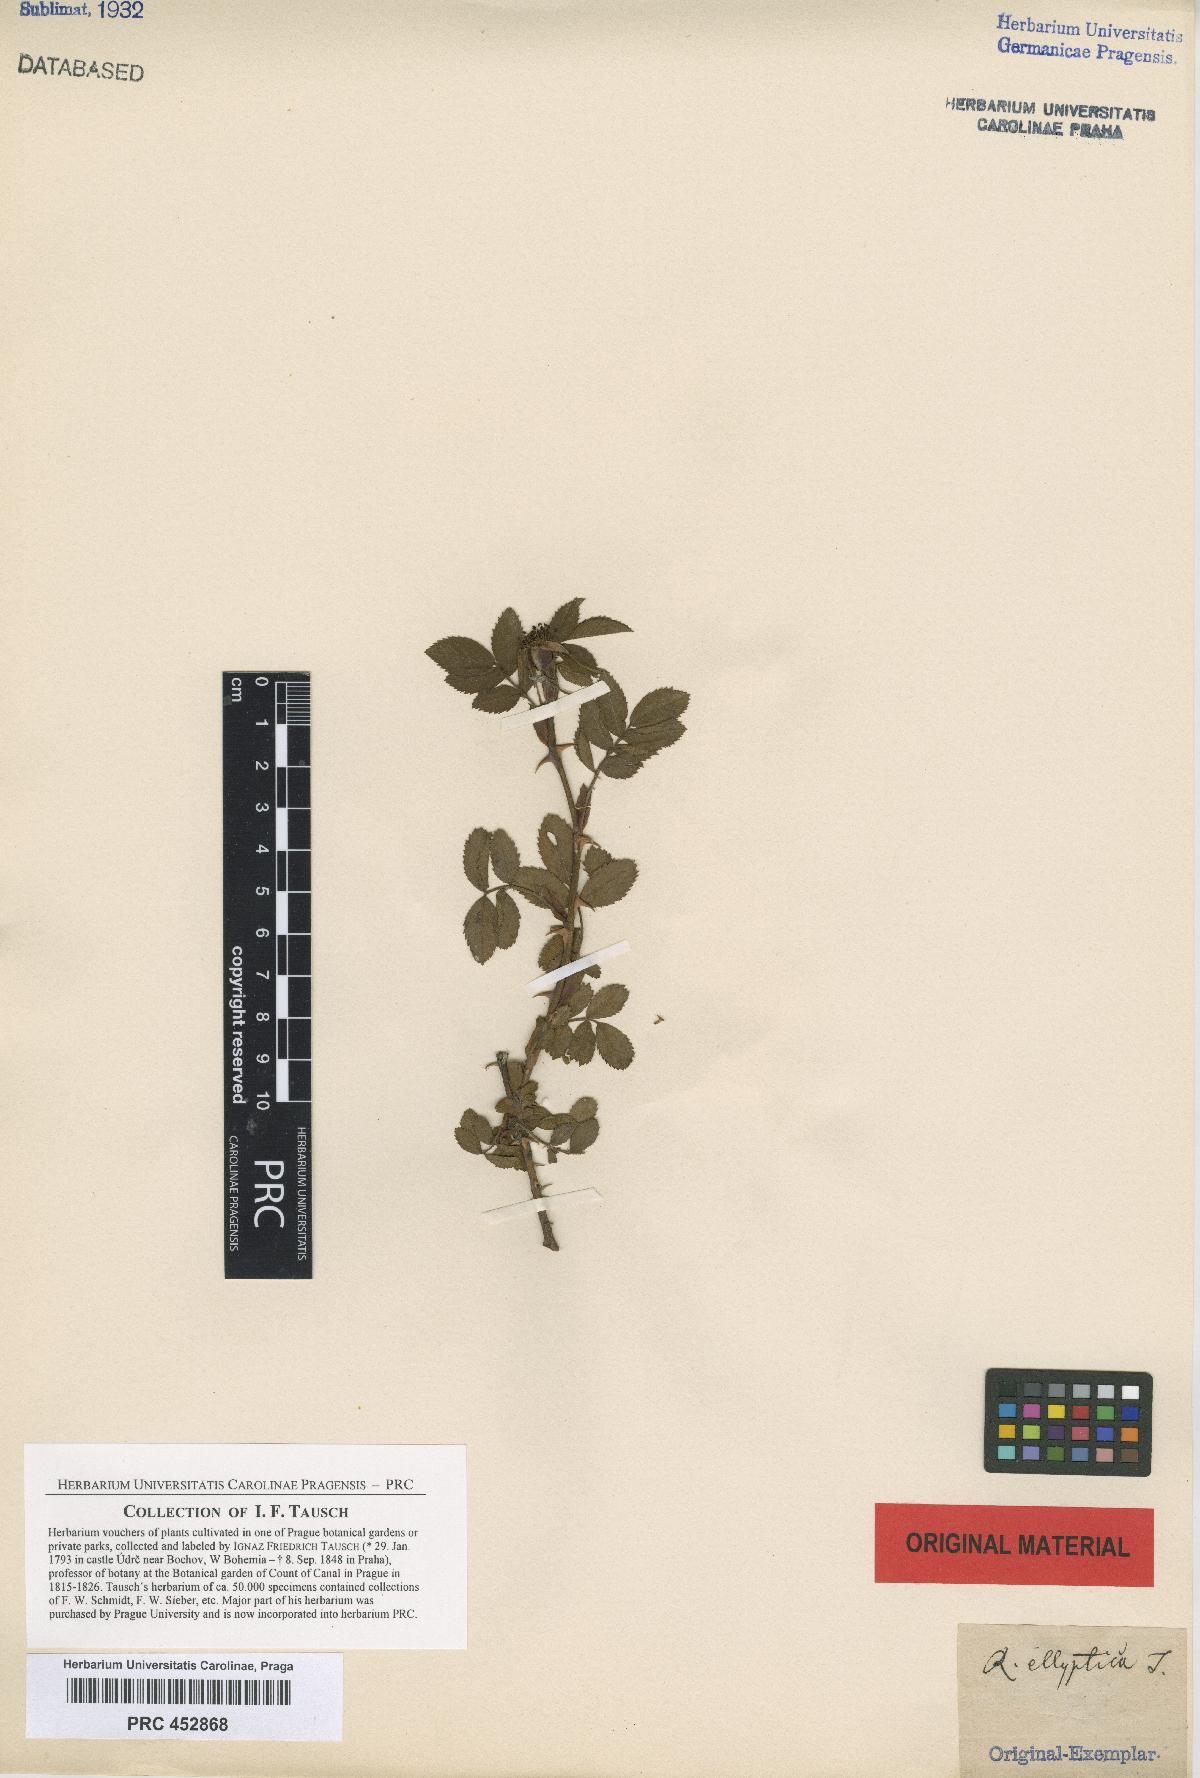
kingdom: Plantae
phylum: Tracheophyta
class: Magnoliopsida
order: Rosales
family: Rosaceae
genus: Rosa
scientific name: Rosa inodora
